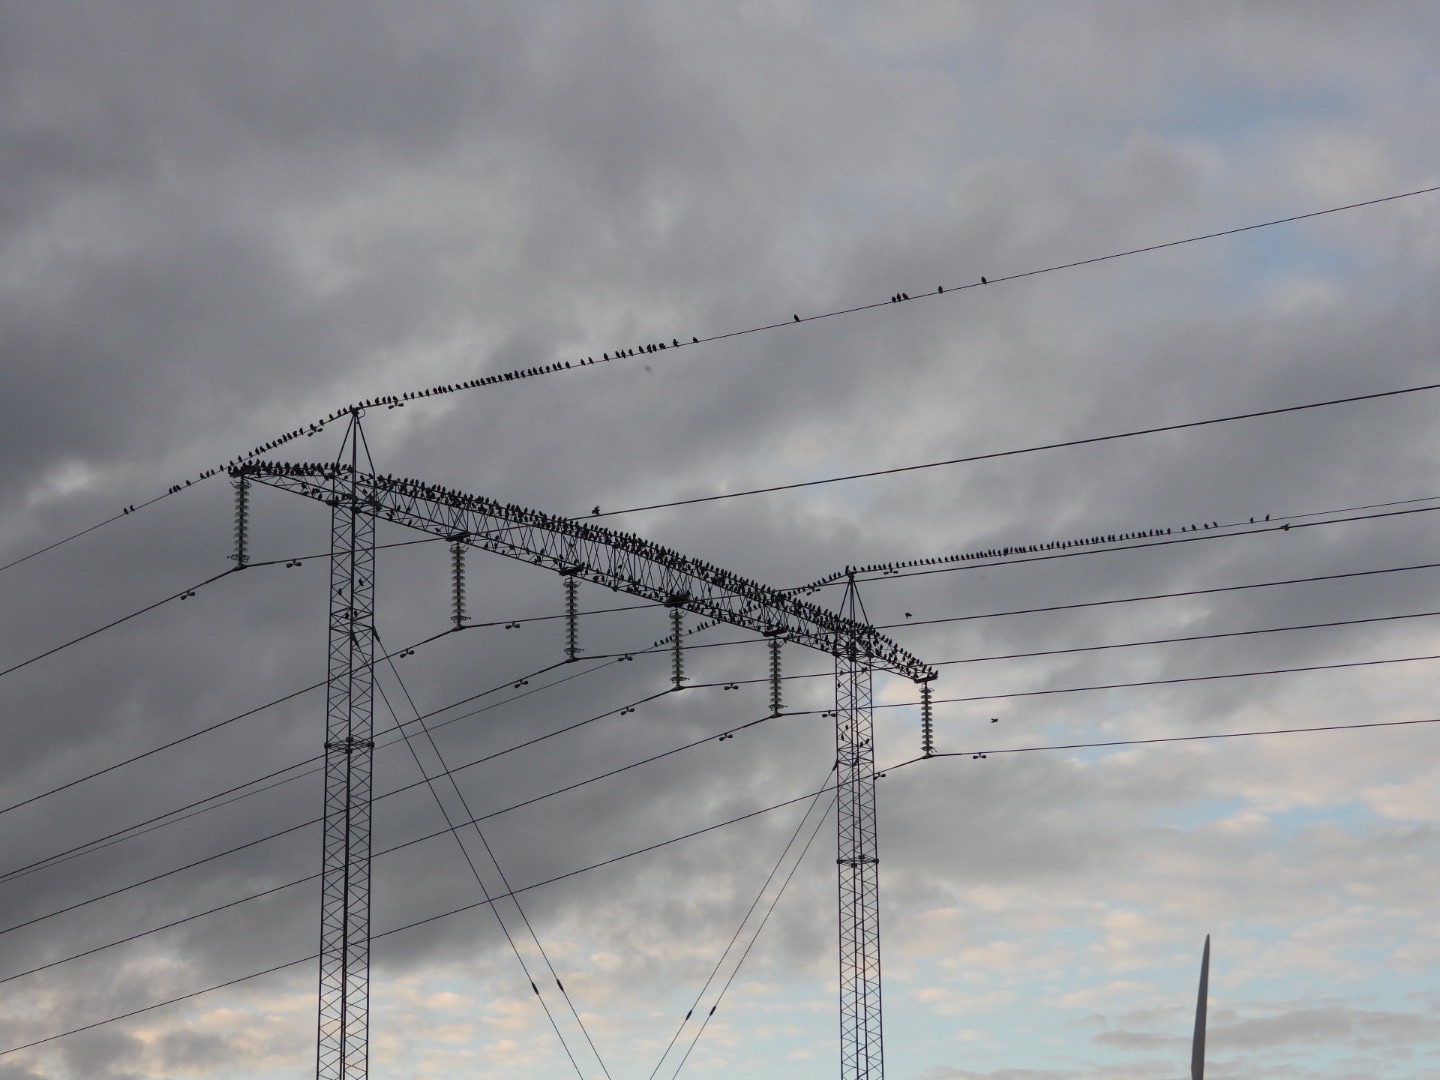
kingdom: Animalia
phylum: Chordata
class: Aves
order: Passeriformes
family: Sturnidae
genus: Sturnus
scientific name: Sturnus vulgaris
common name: Stær
